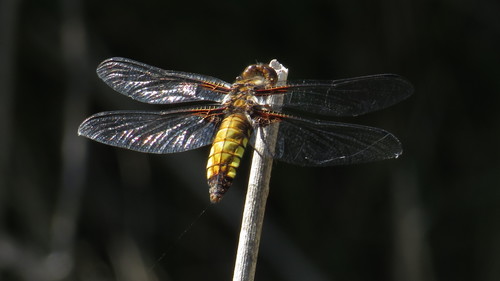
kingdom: Animalia
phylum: Arthropoda
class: Insecta
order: Odonata
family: Libellulidae
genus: Libellula
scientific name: Libellula depressa
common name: Broad-bodied chaser
